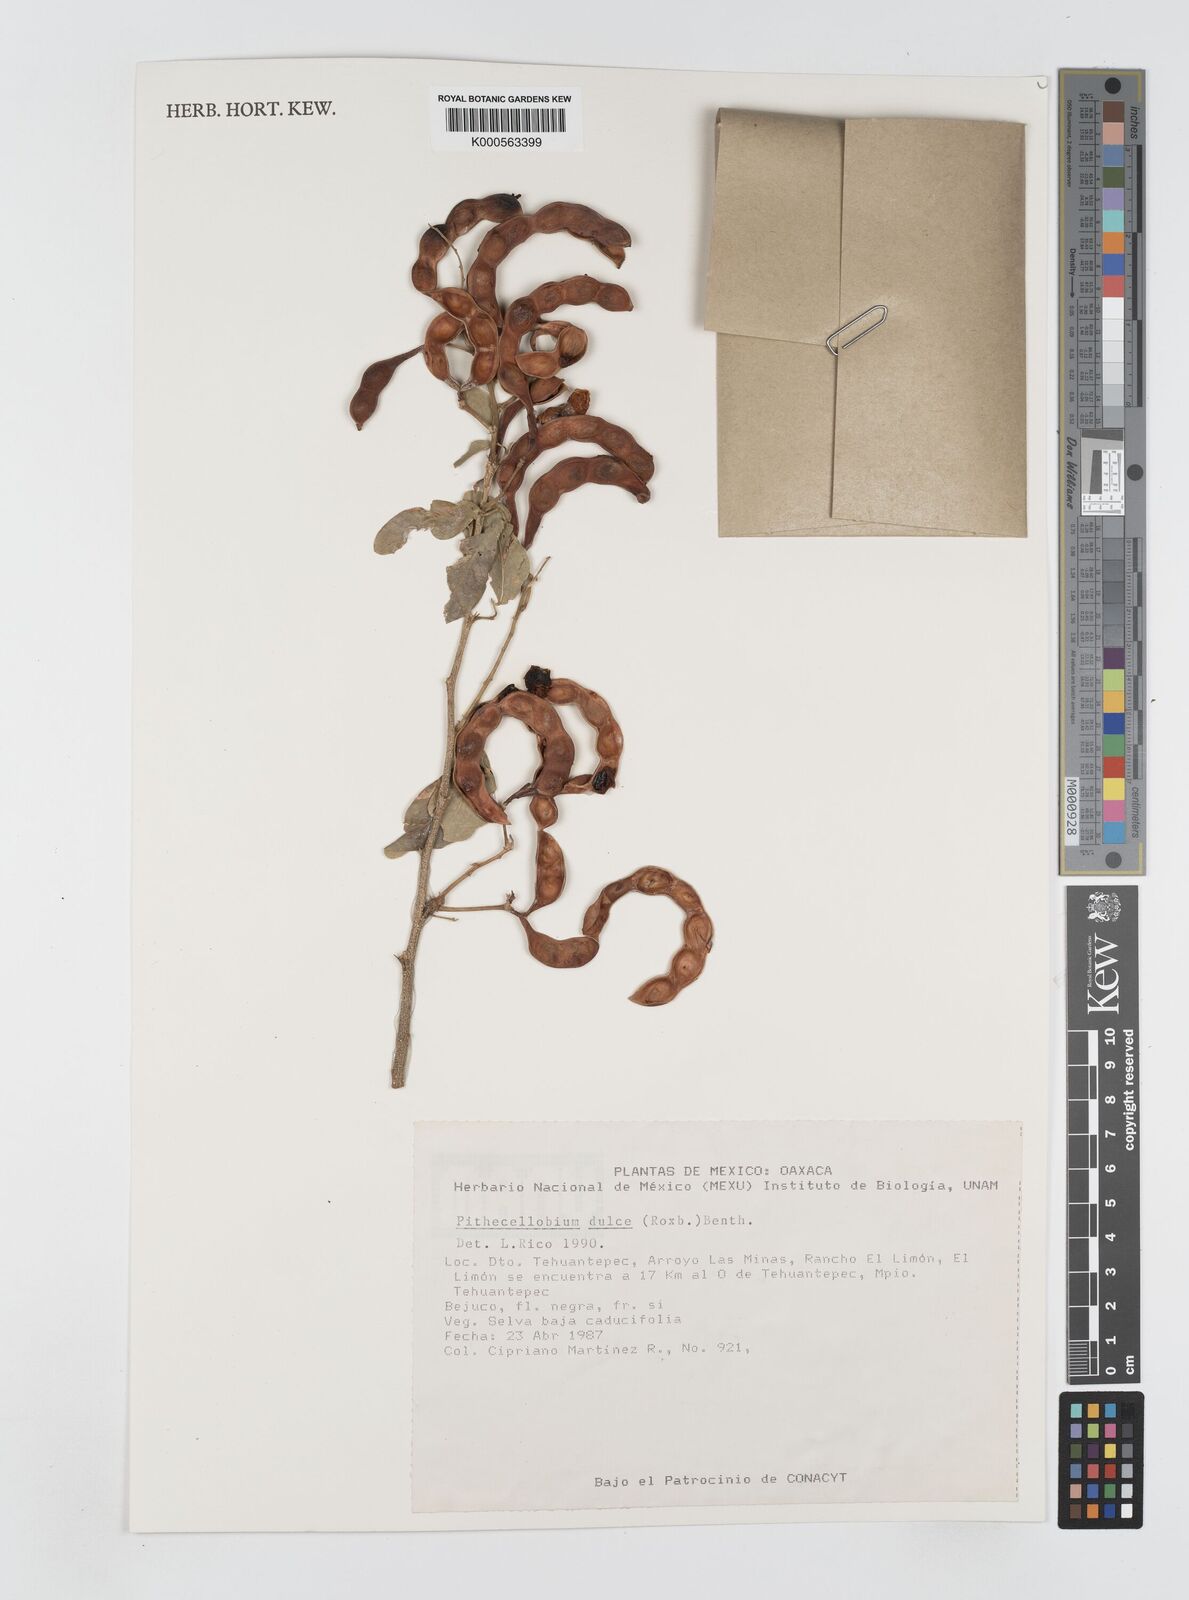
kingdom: Plantae
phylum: Tracheophyta
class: Magnoliopsida
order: Fabales
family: Fabaceae
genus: Pithecellobium
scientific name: Pithecellobium dulce
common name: Monkeypod
